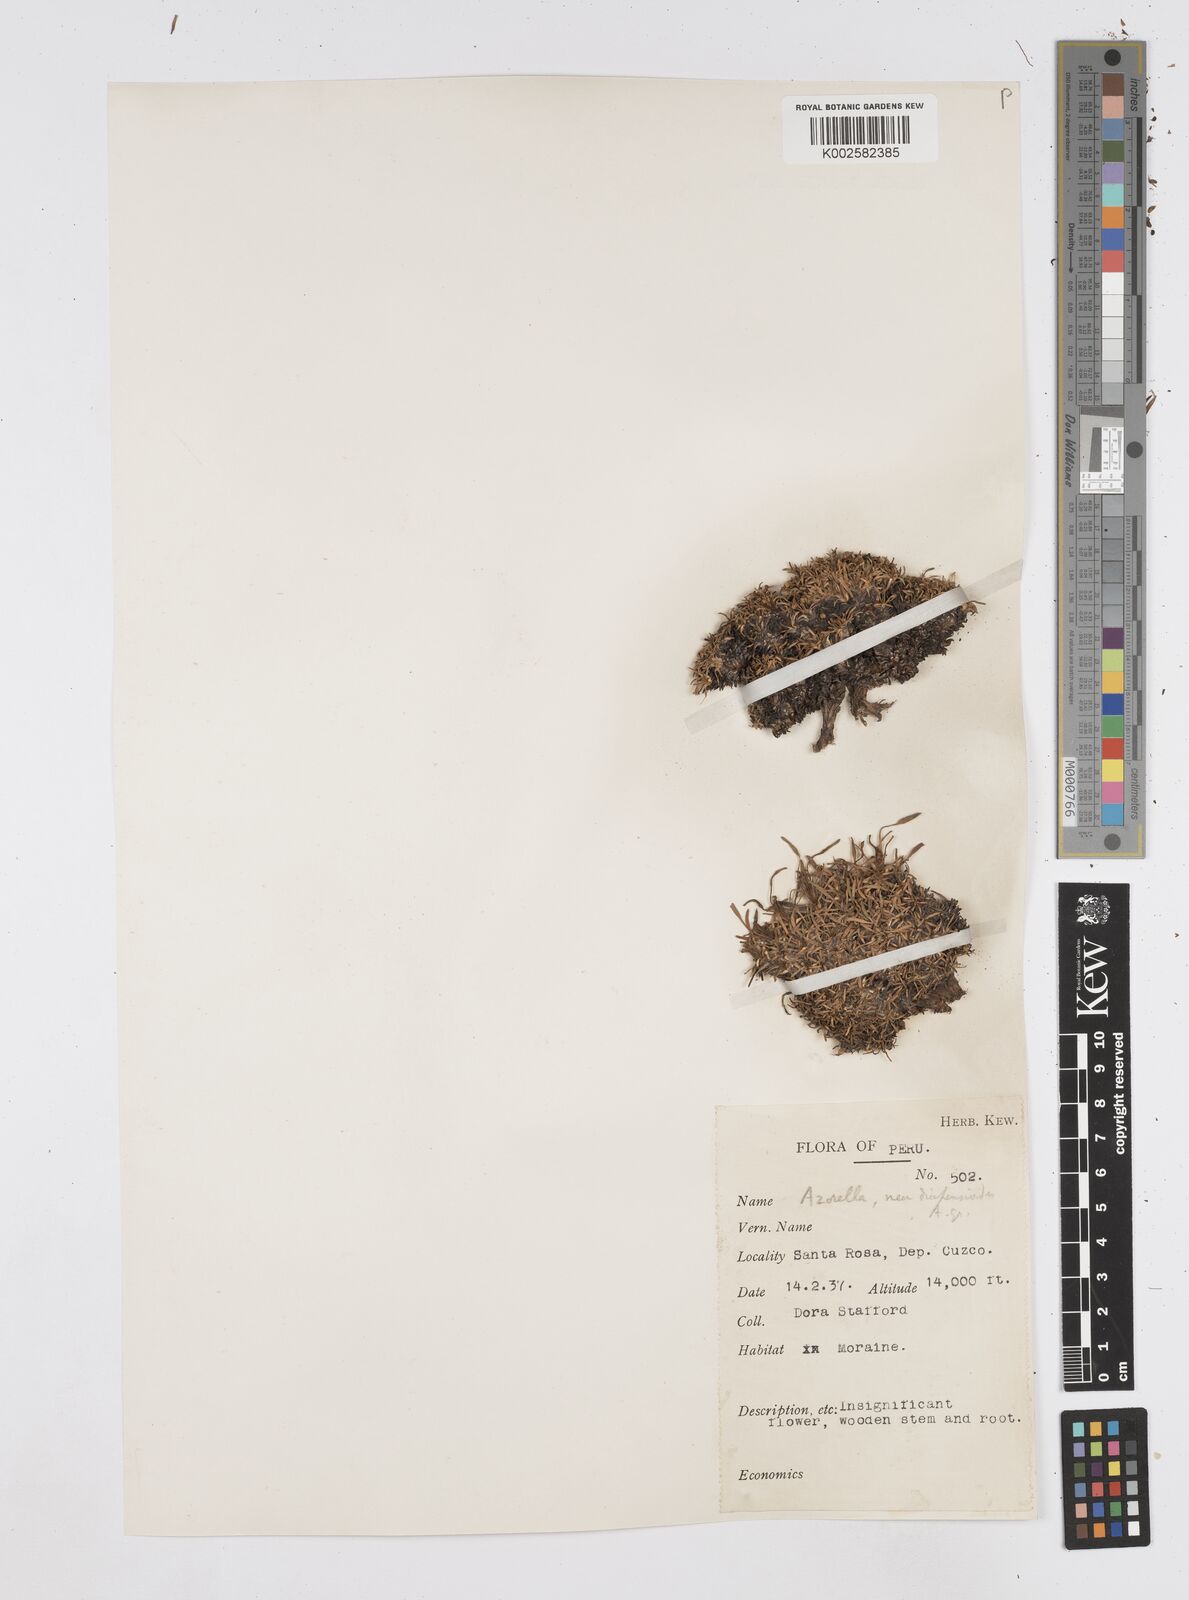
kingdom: Plantae
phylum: Tracheophyta
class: Magnoliopsida
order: Apiales
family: Apiaceae
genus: Azorella
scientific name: Azorella diapensioides
